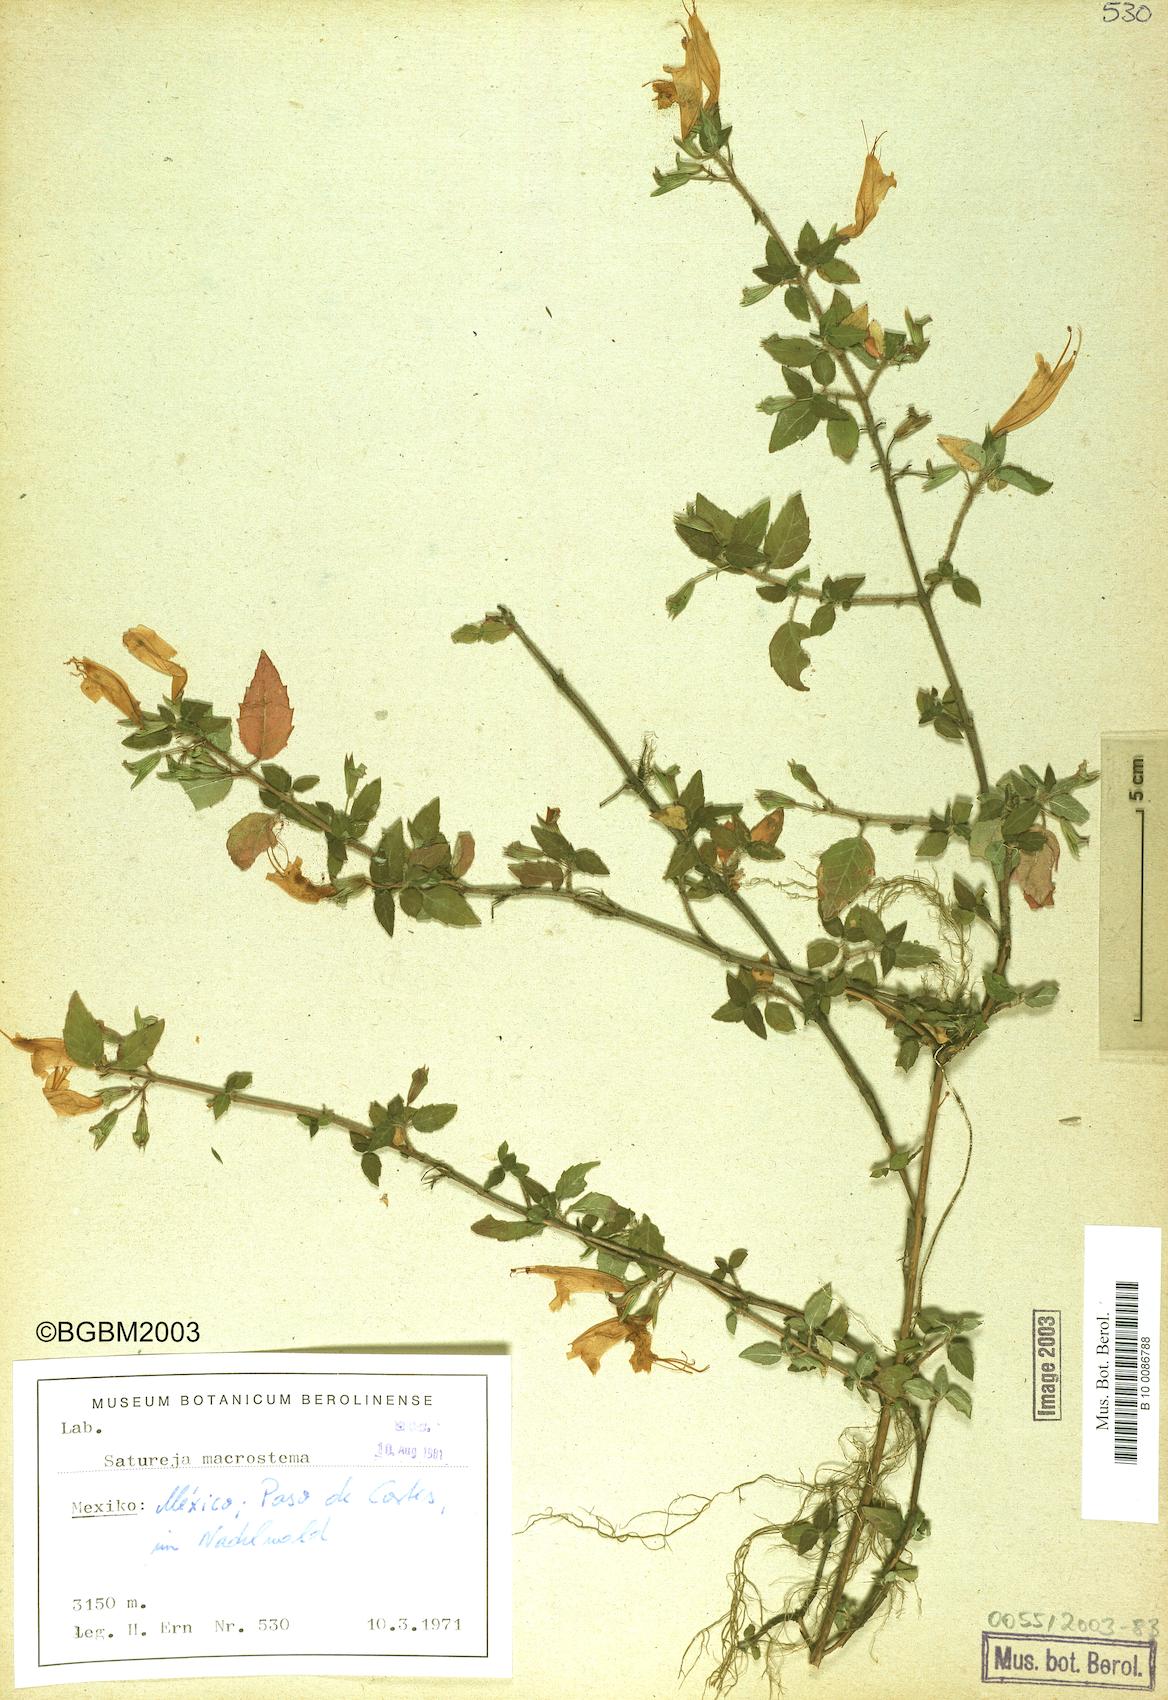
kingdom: Plantae
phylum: Tracheophyta
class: Magnoliopsida
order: Lamiales
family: Lamiaceae
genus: Clinopodium
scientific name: Clinopodium macrostemum
